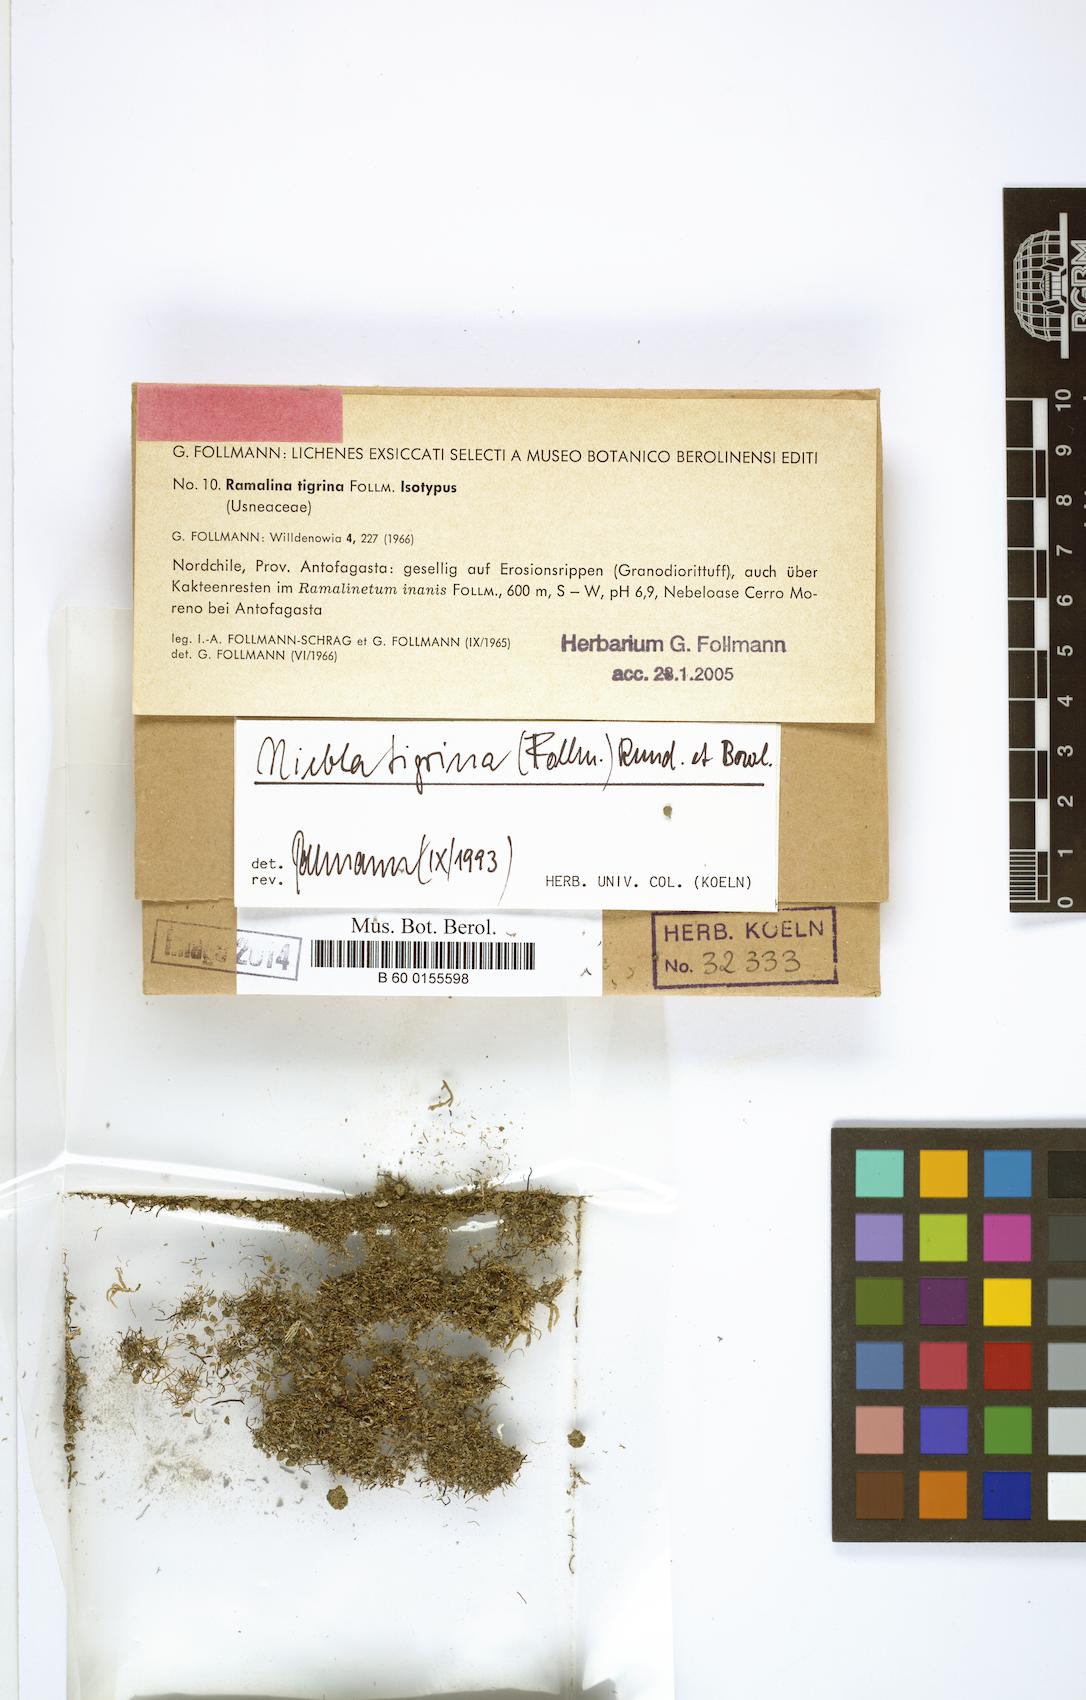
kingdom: Fungi
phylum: Ascomycota
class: Lecanoromycetes
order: Lecanorales
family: Ramalinaceae
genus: Niebla
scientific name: Niebla tigrina
